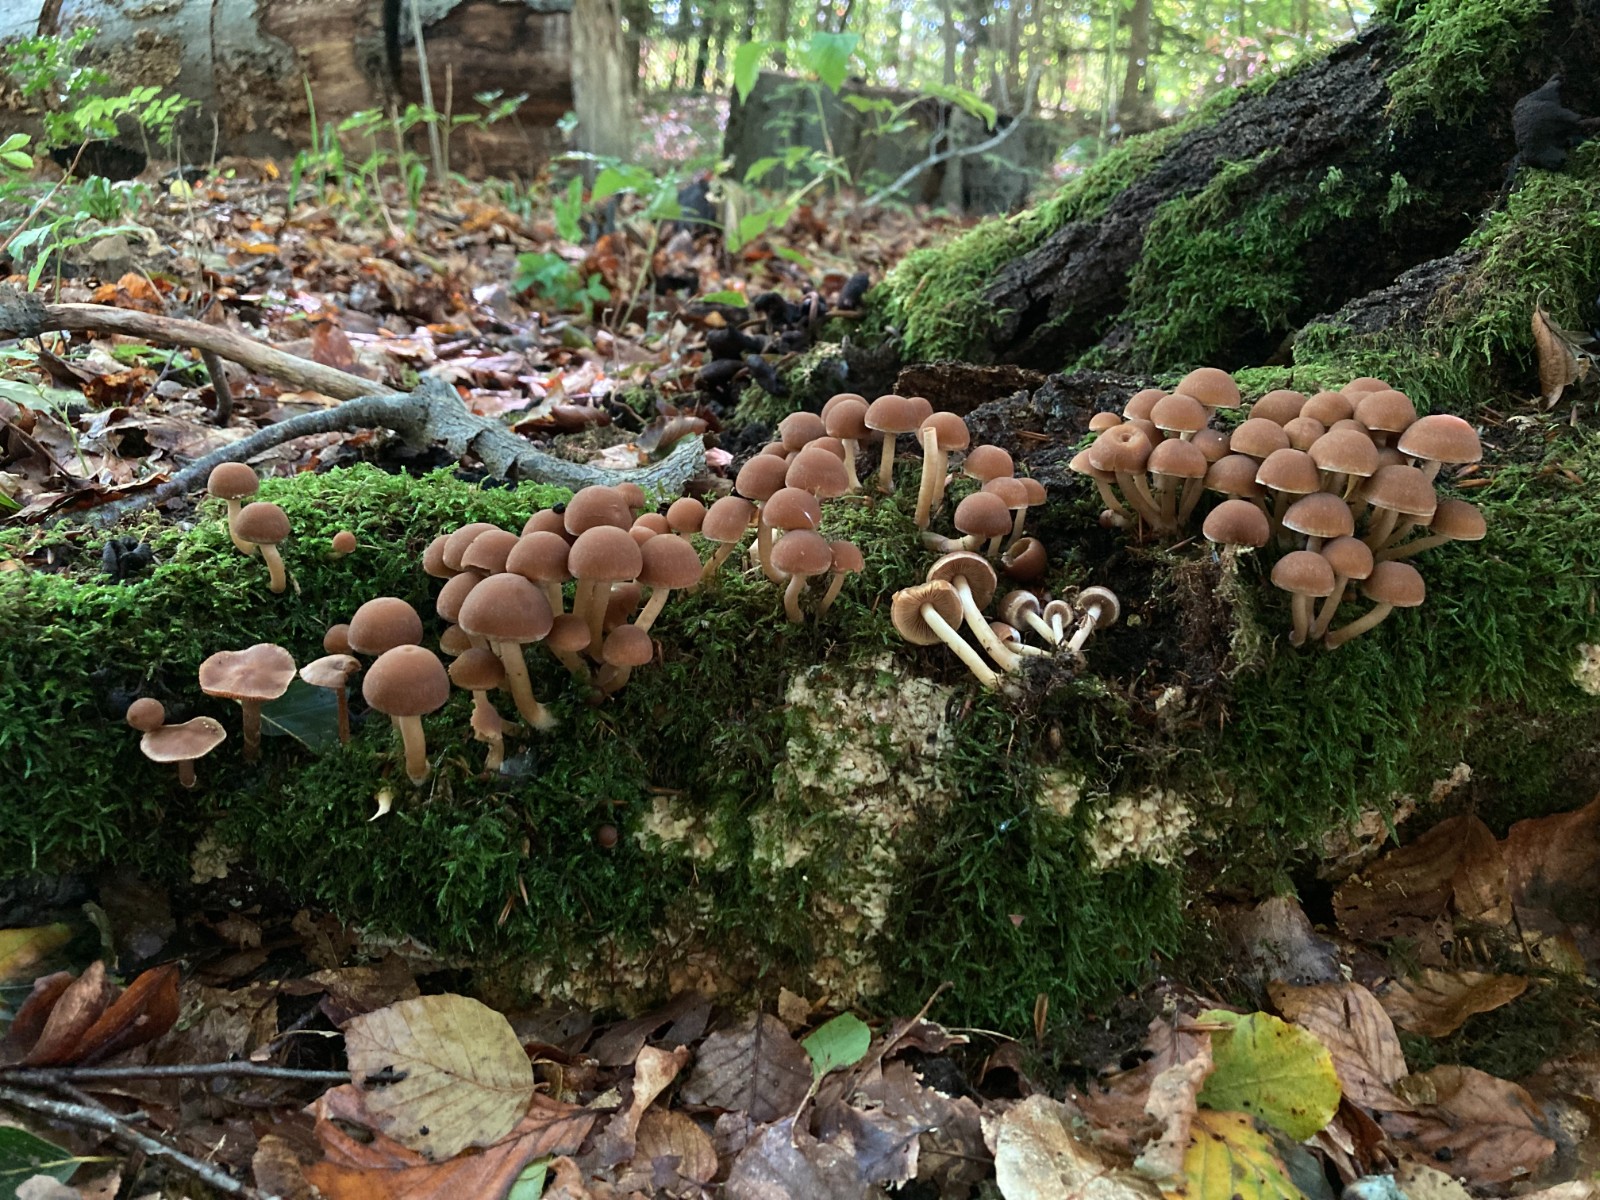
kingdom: Fungi
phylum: Basidiomycota
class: Agaricomycetes
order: Agaricales
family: Psathyrellaceae
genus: Psathyrella
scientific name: Psathyrella piluliformis
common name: lysstokket mørkhat
